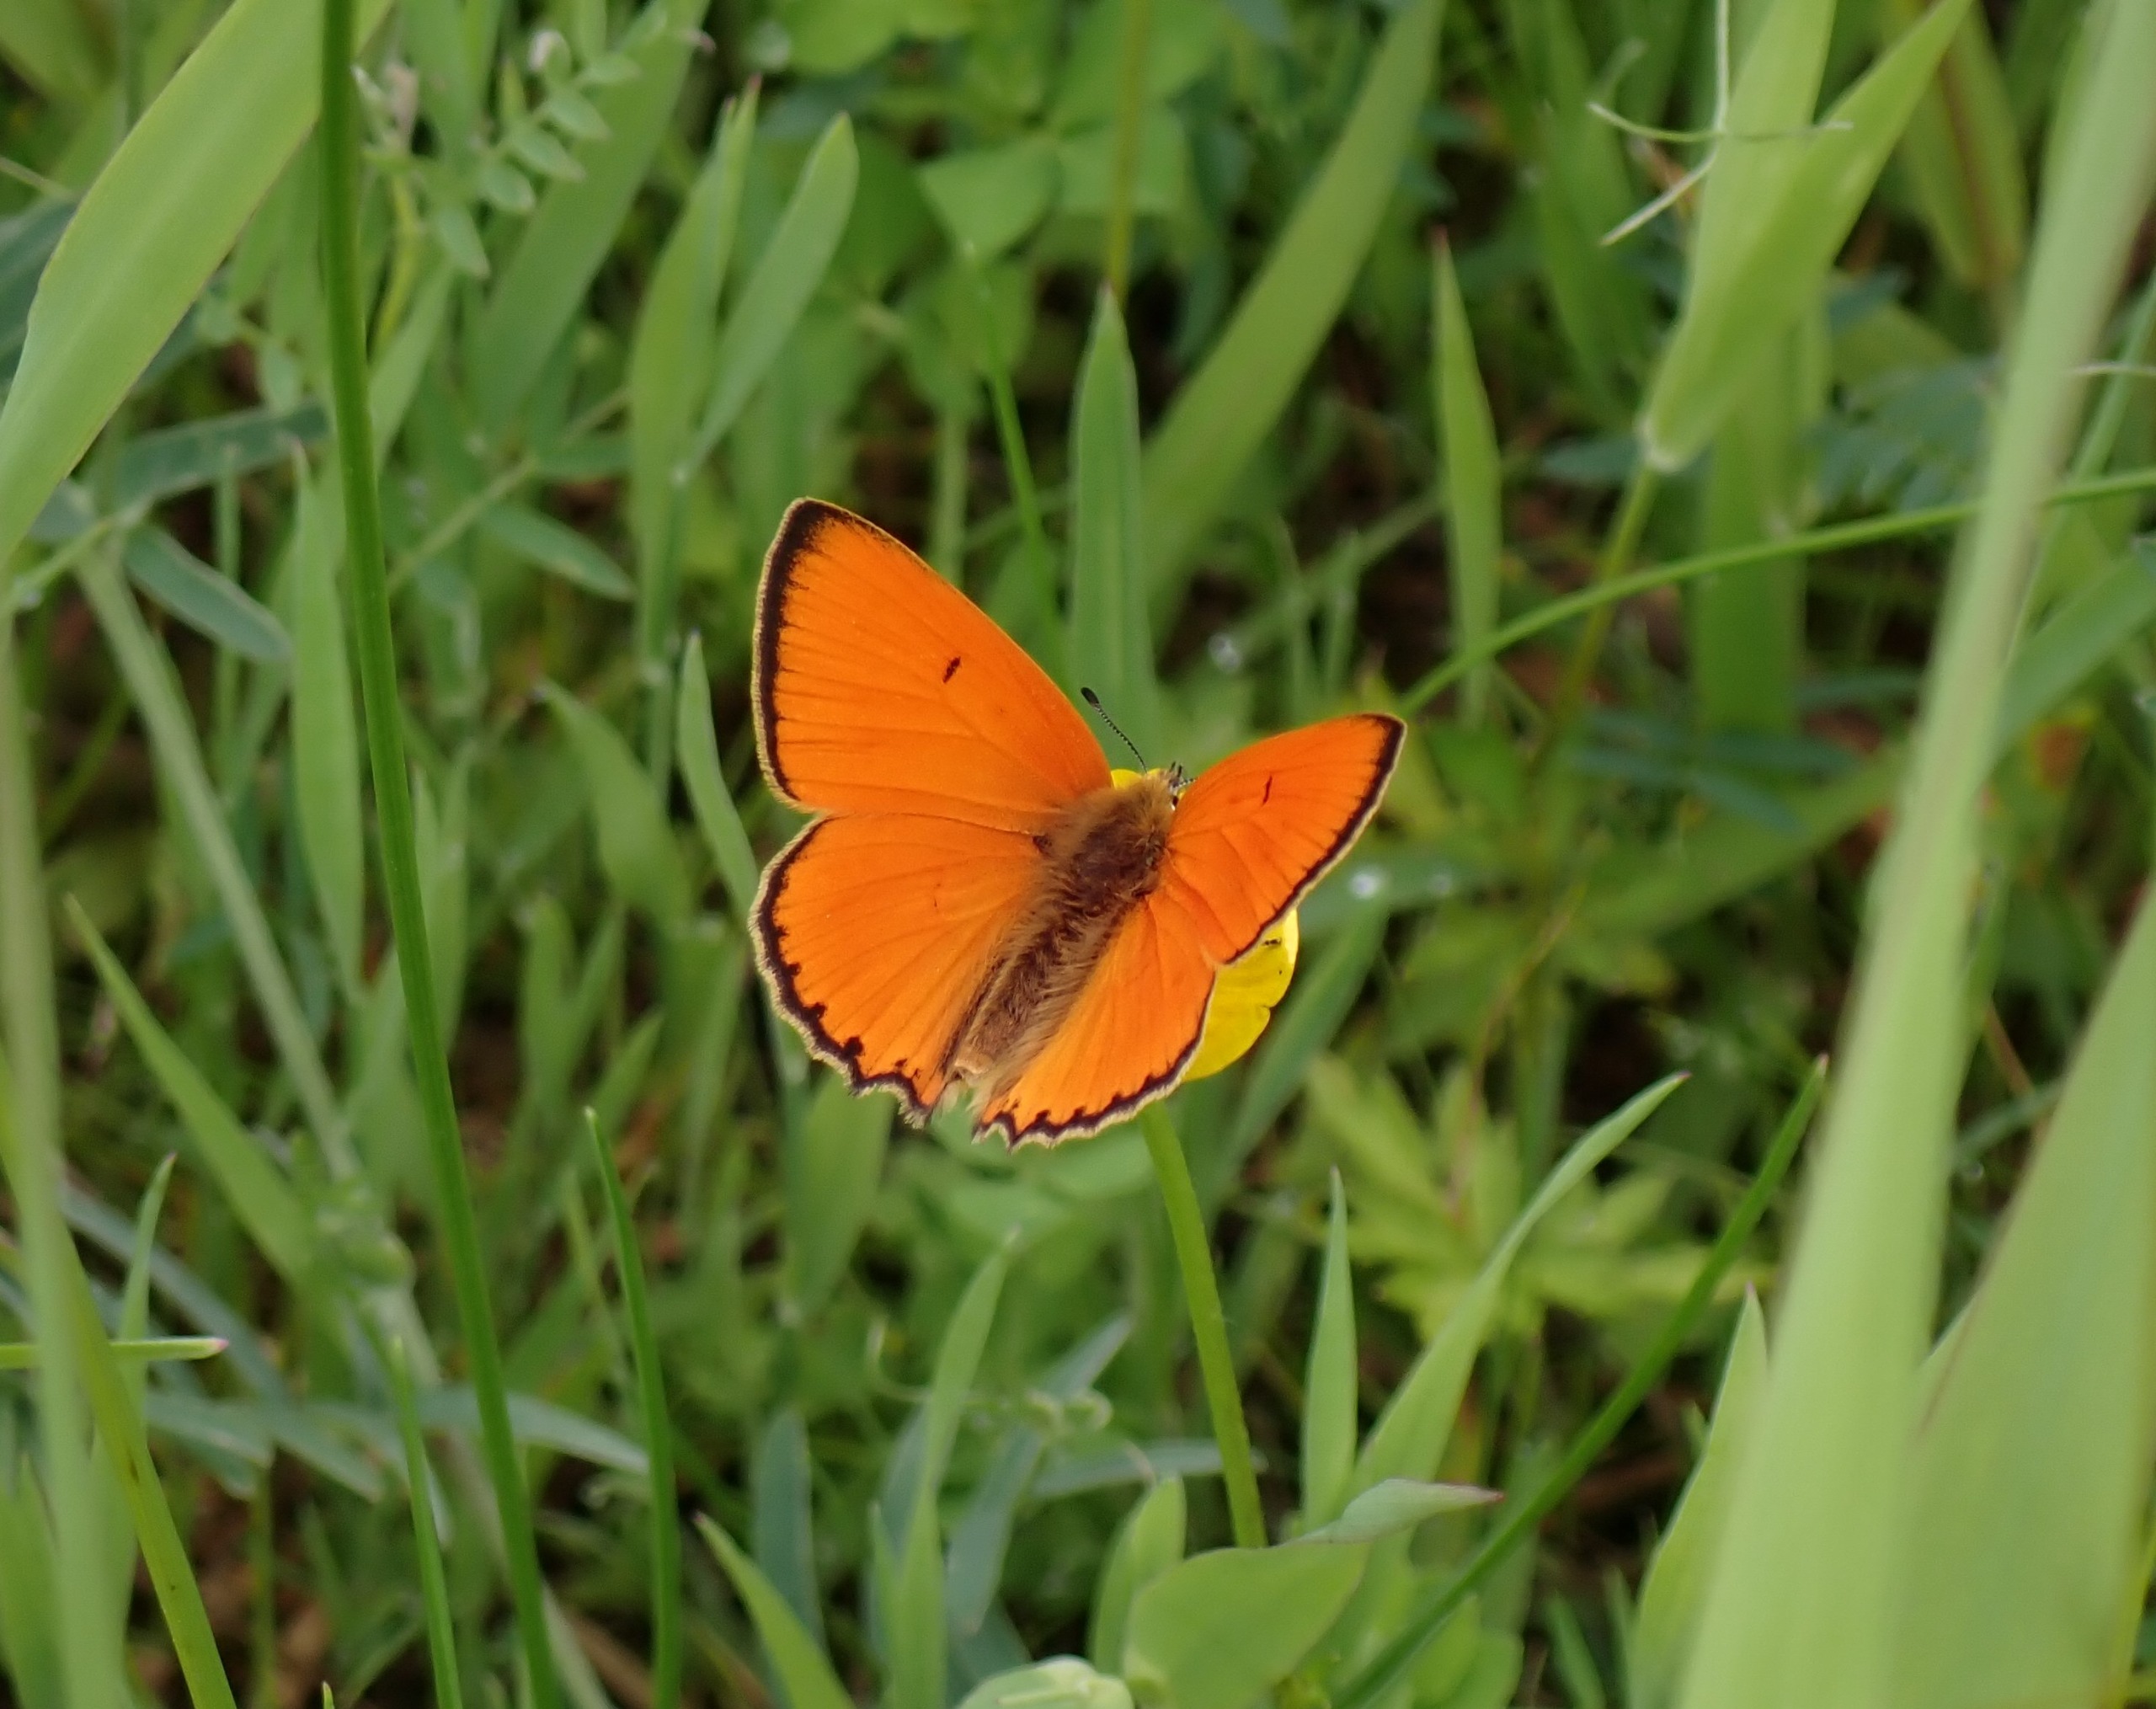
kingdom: Animalia
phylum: Arthropoda
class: Insecta
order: Lepidoptera
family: Lycaenidae
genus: Lycaena
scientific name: Lycaena virgaureae
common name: Dukatsommerfugl
